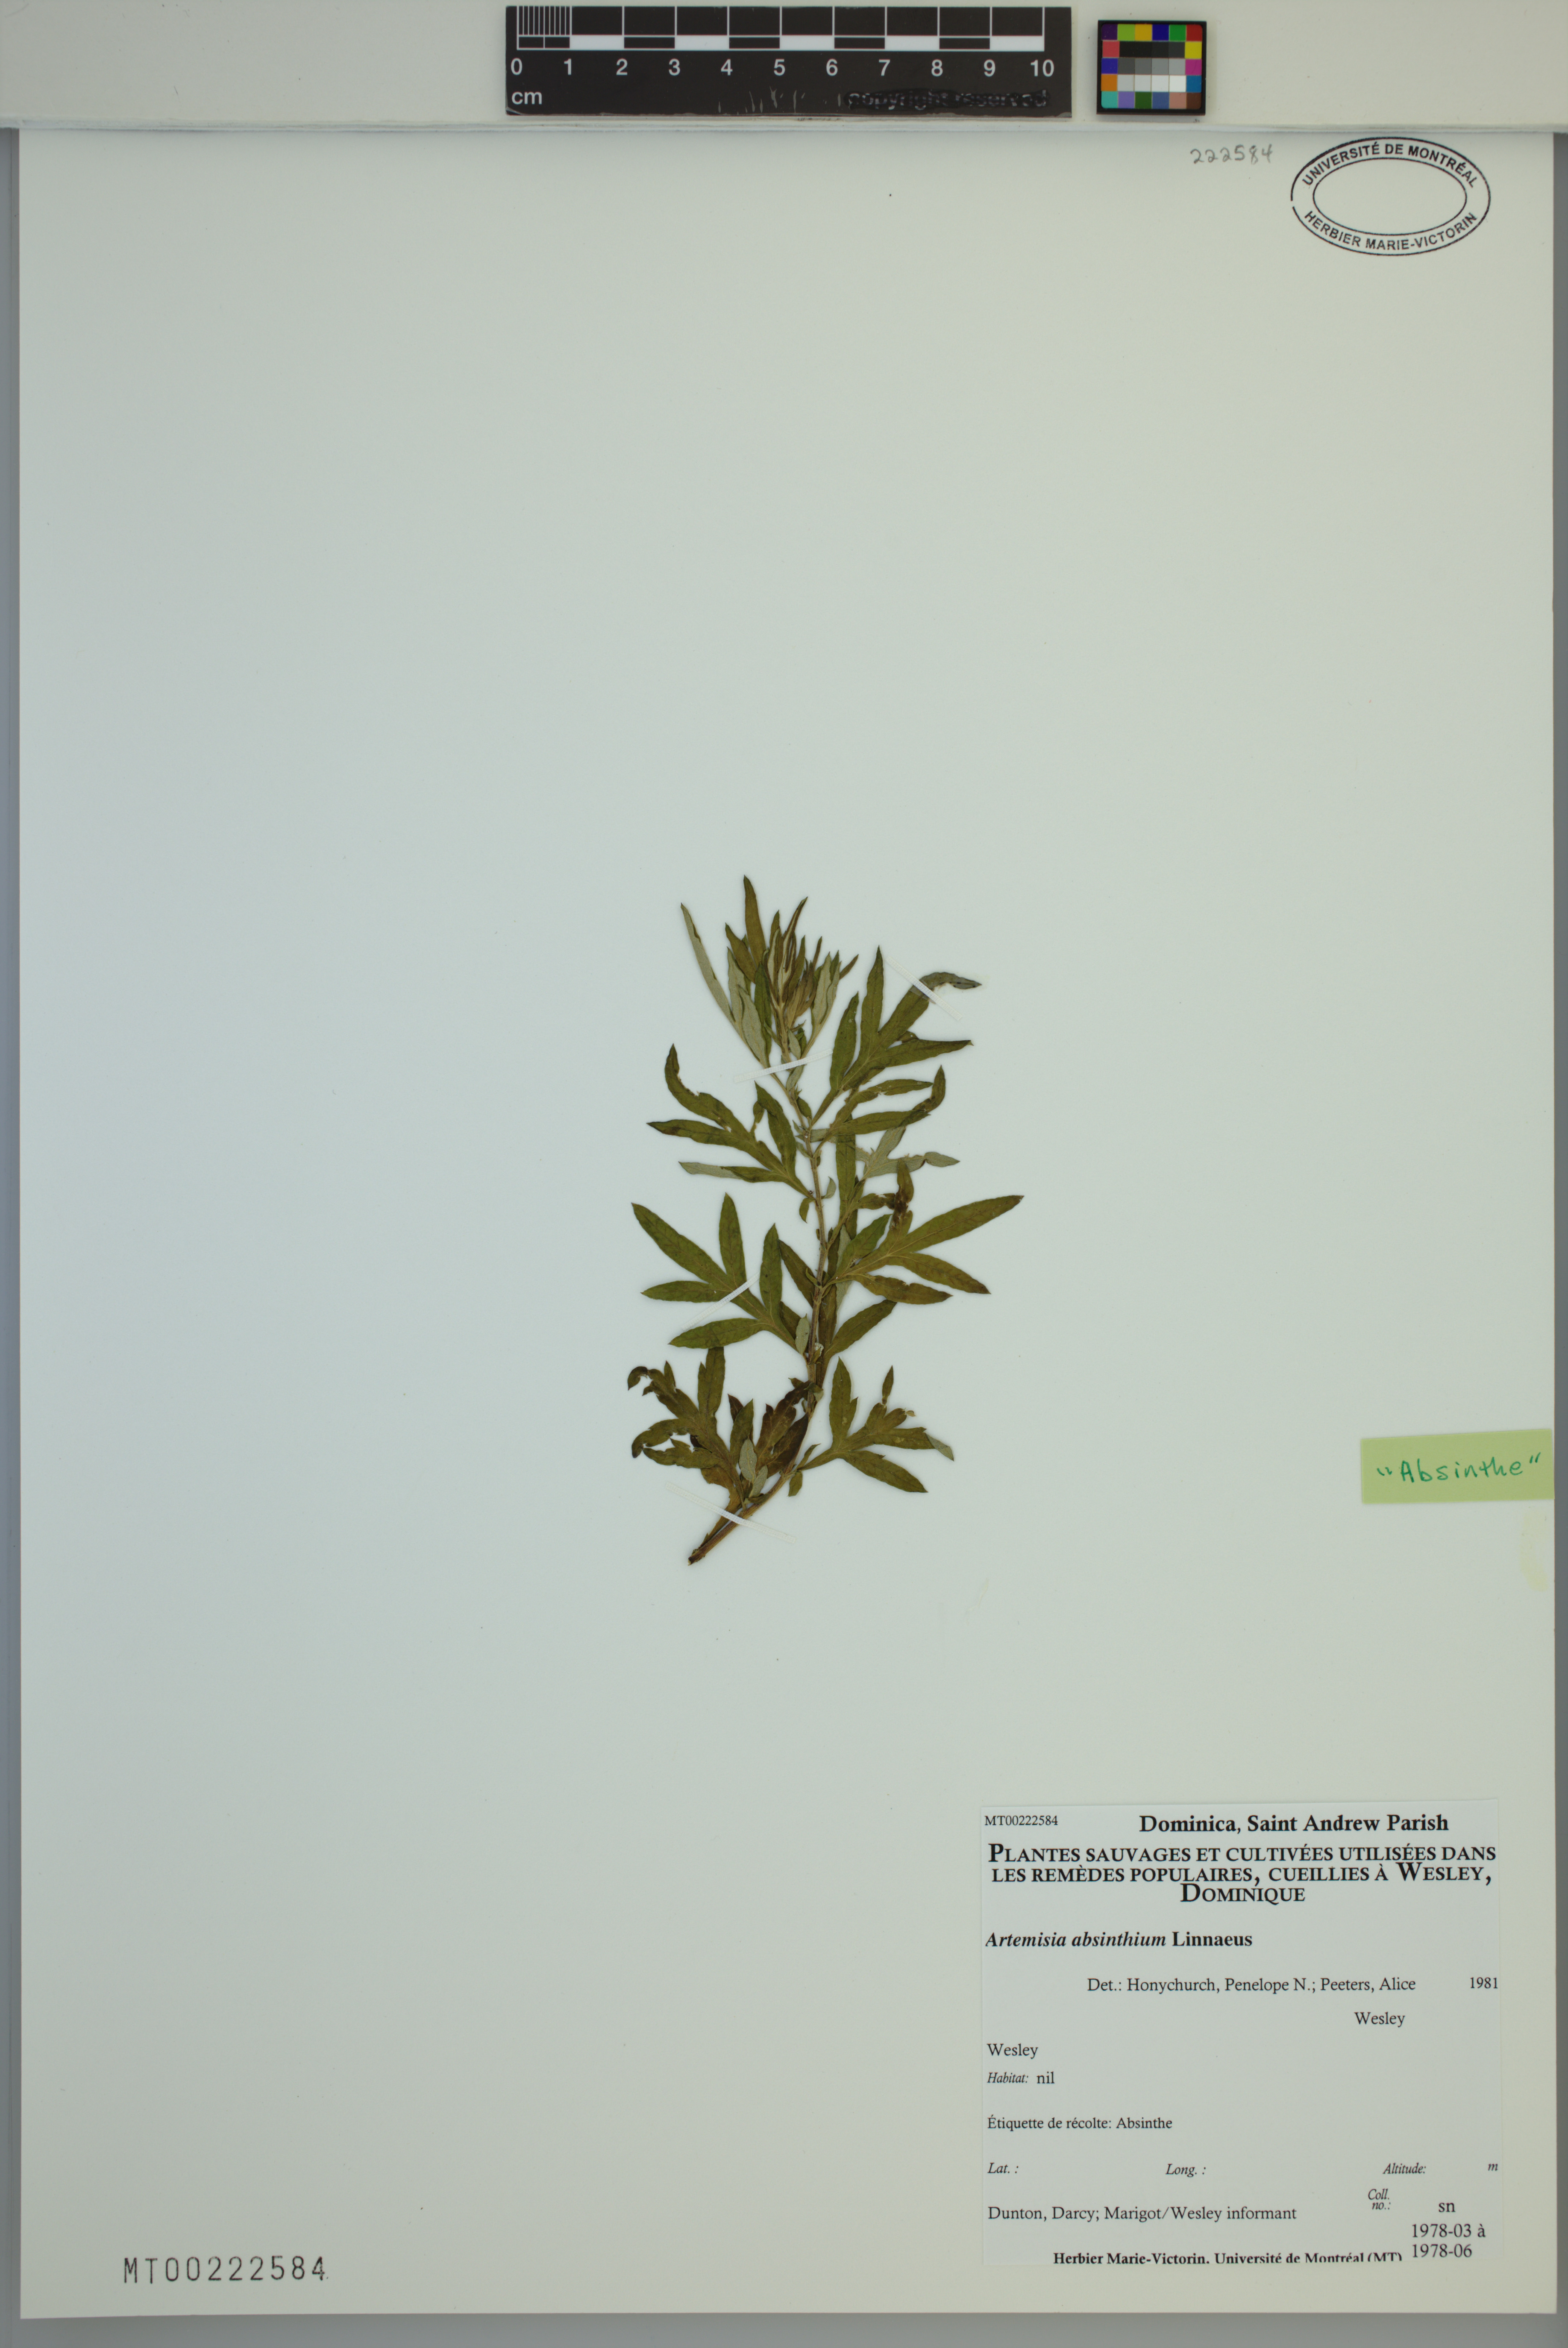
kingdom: Plantae
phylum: Tracheophyta
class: Magnoliopsida
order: Asterales
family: Asteraceae
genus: Artemisia
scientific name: Artemisia absinthium
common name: Wormwood
